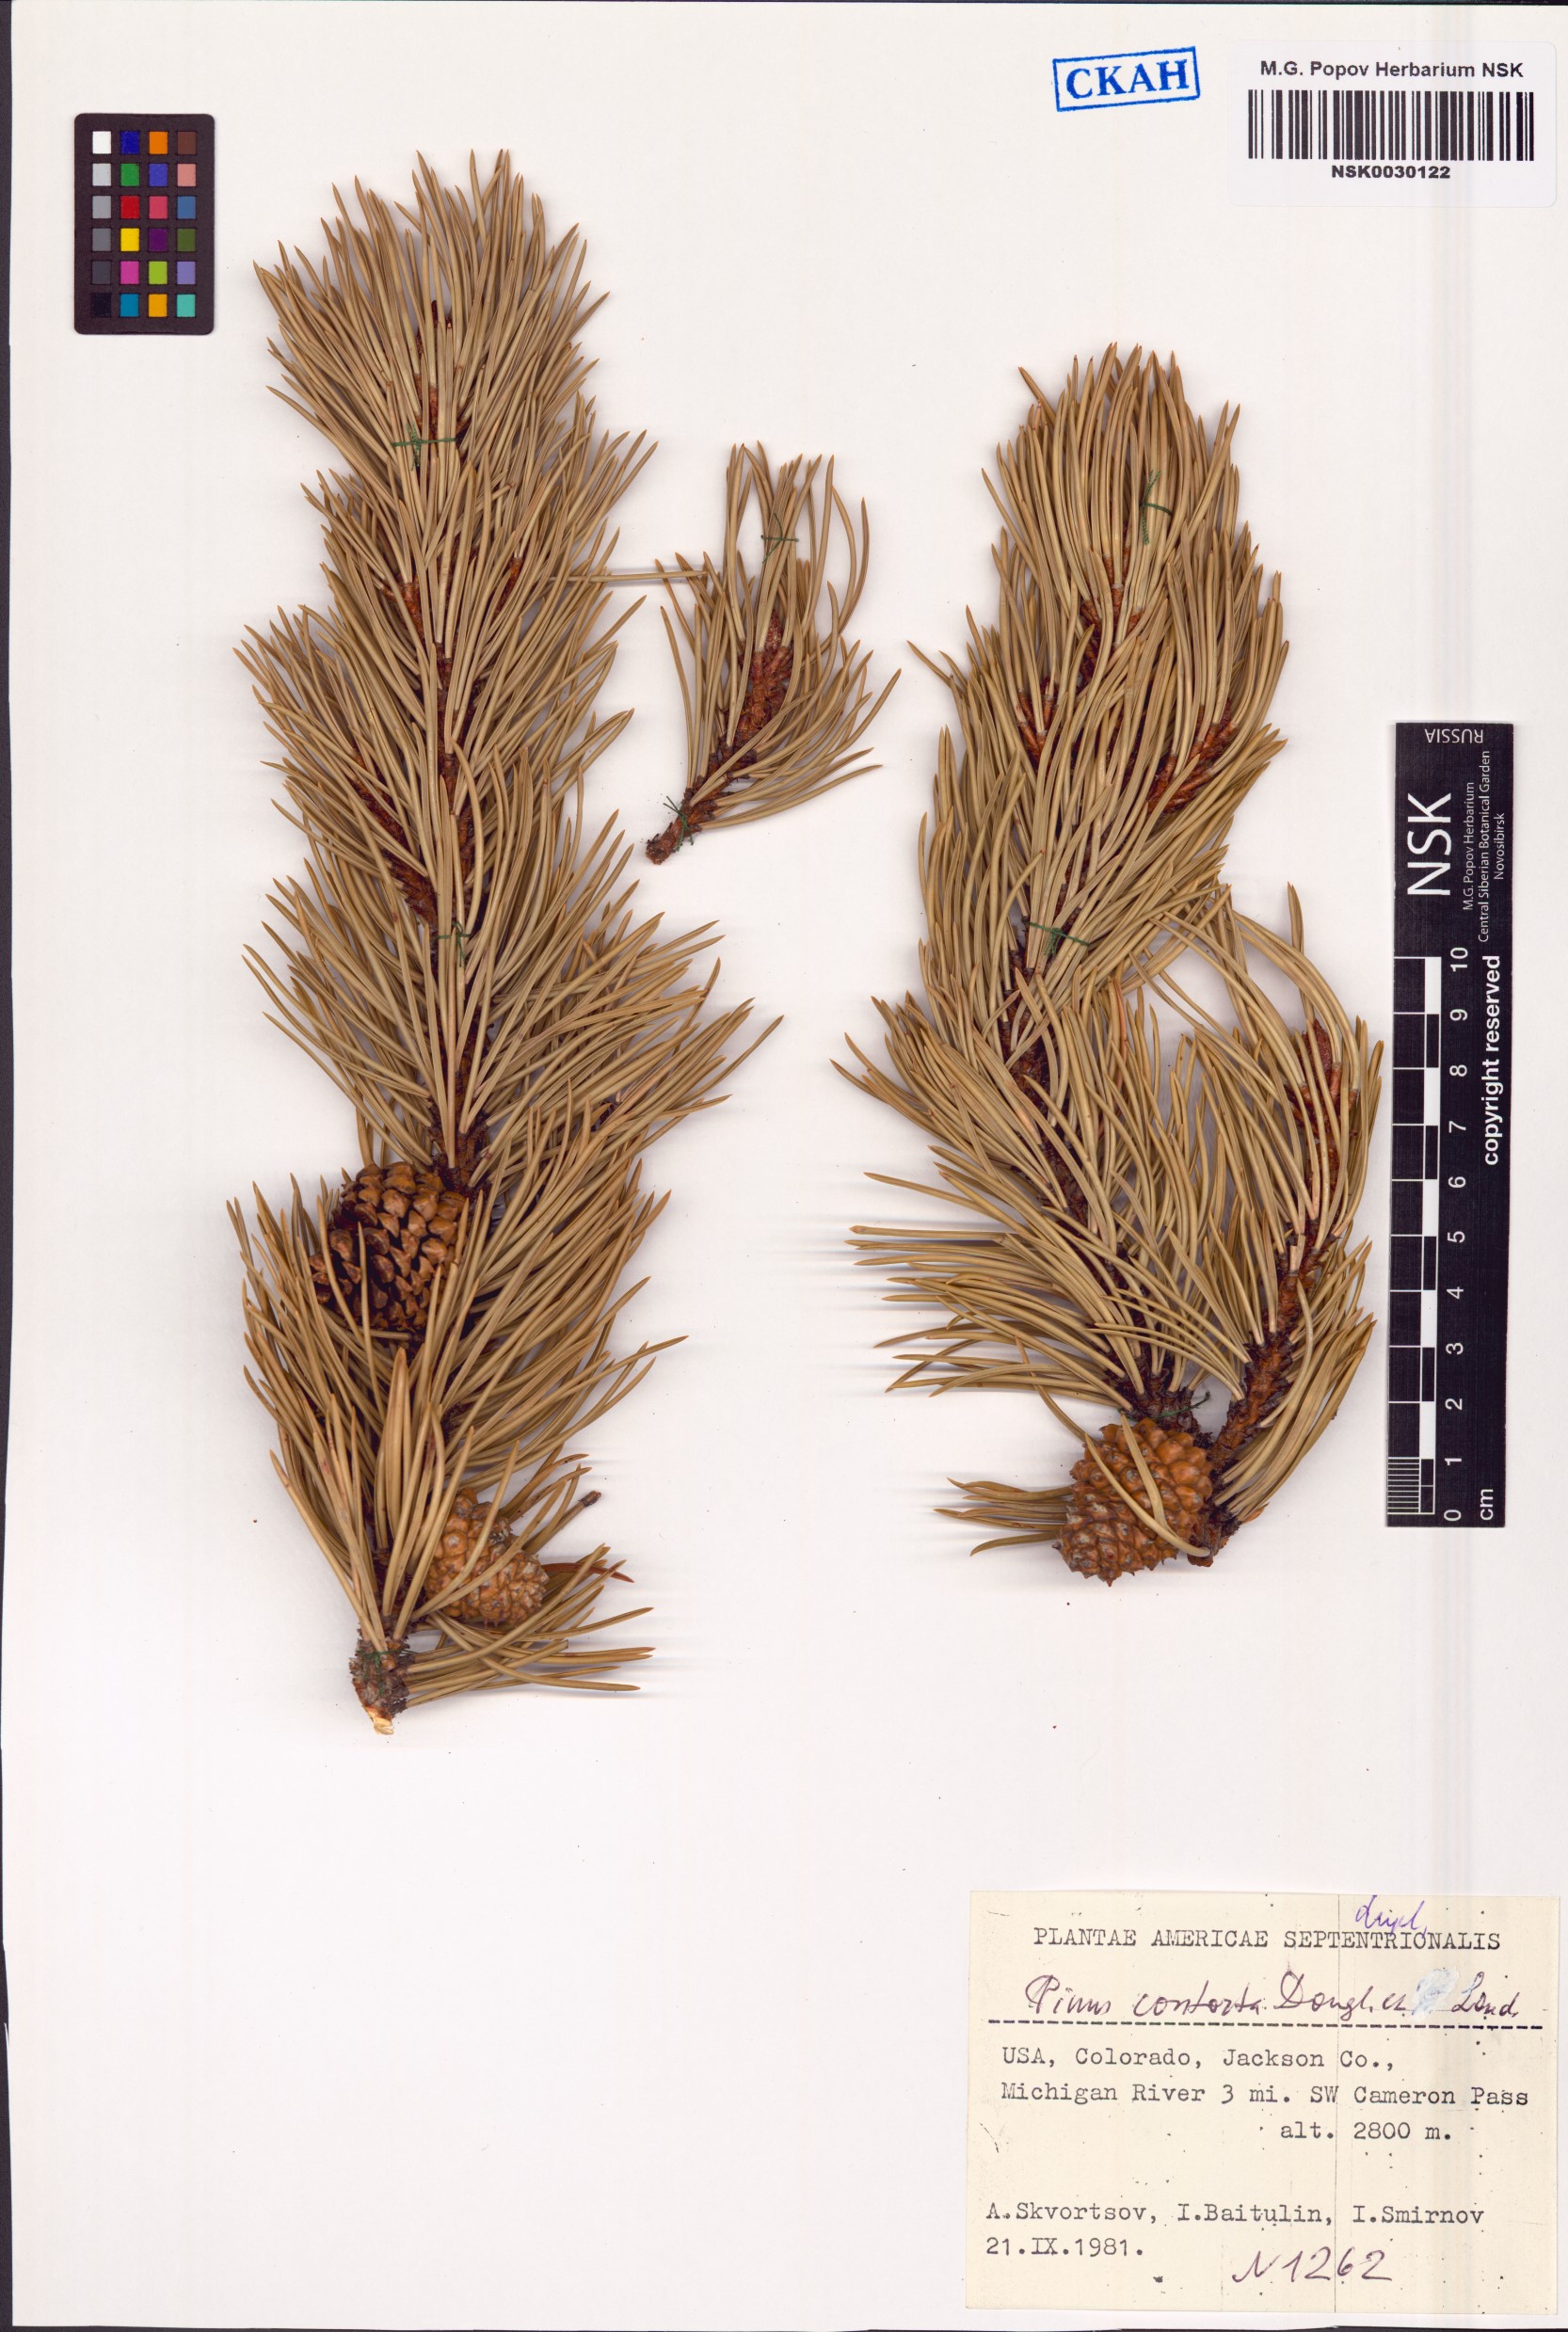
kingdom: Plantae
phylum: Tracheophyta
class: Pinopsida
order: Pinales
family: Pinaceae
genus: Pinus
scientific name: Pinus contorta
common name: Lodgepole pine
